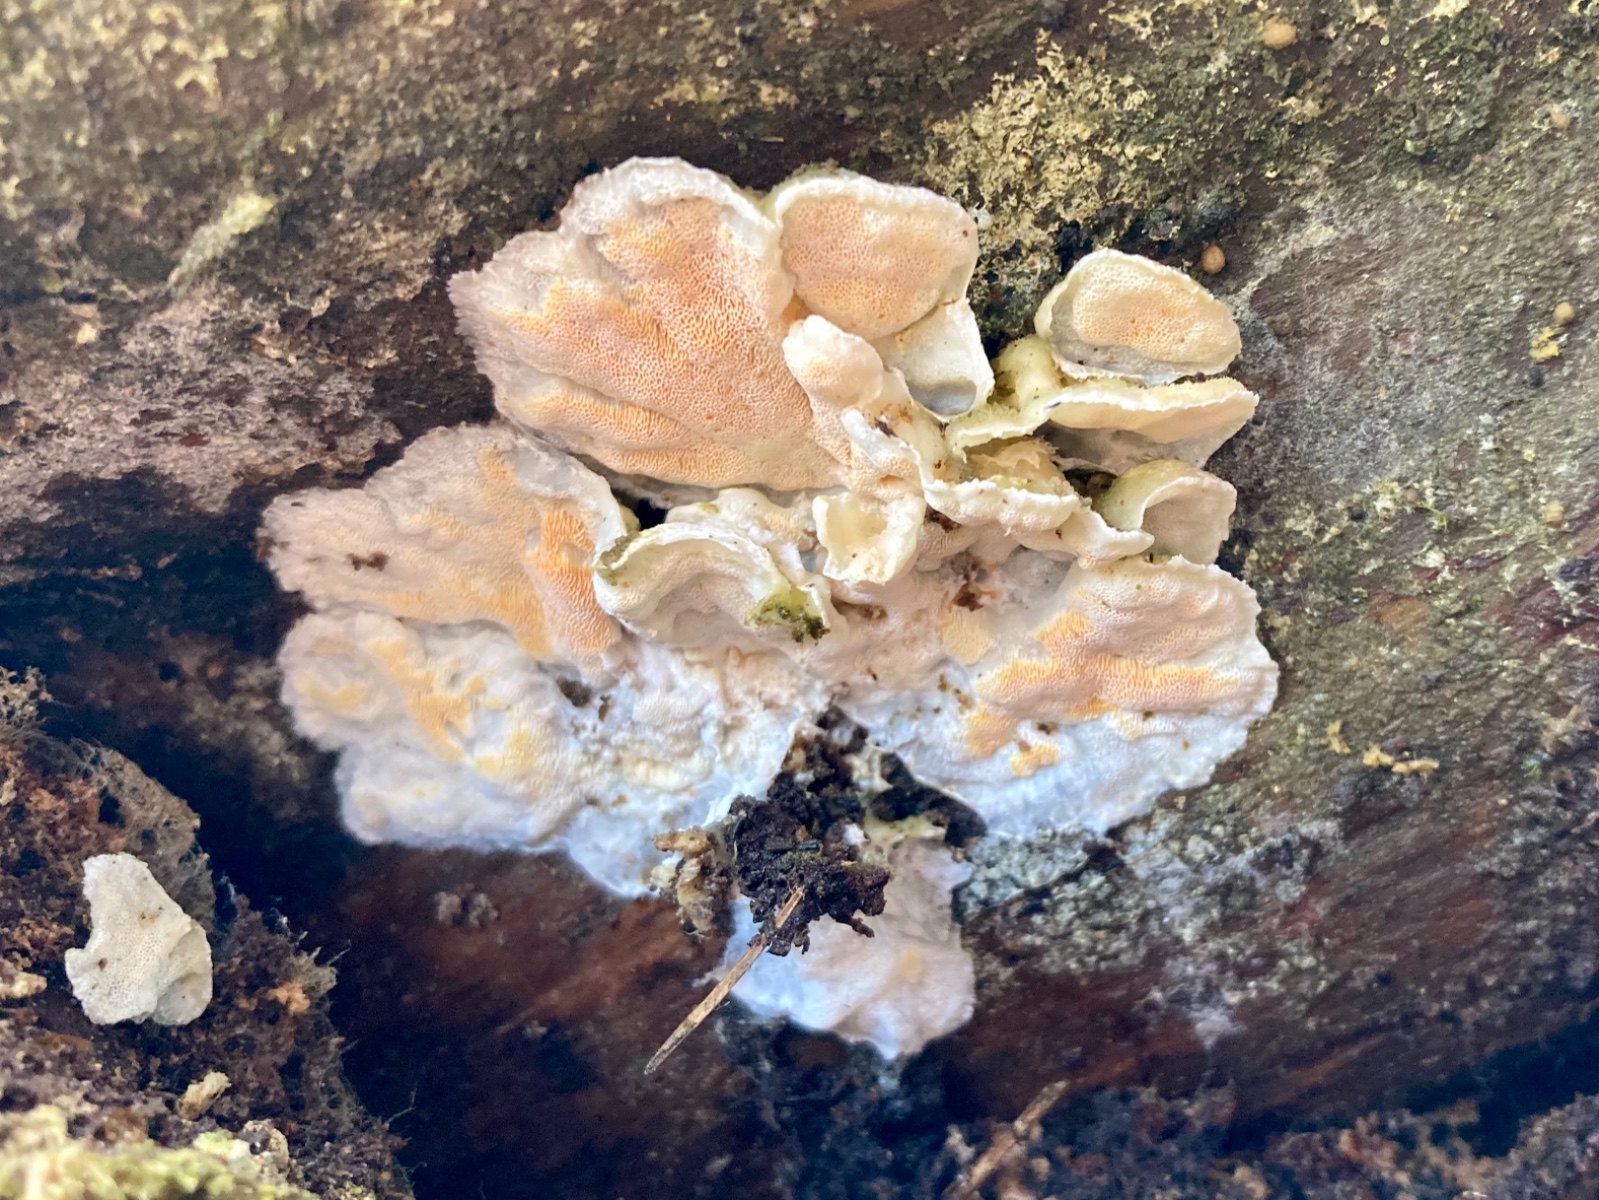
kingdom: Fungi
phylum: Basidiomycota
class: Agaricomycetes
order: Polyporales
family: Incrustoporiaceae
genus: Skeletocutis
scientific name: Skeletocutis amorpha
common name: orange krystalporesvamp
